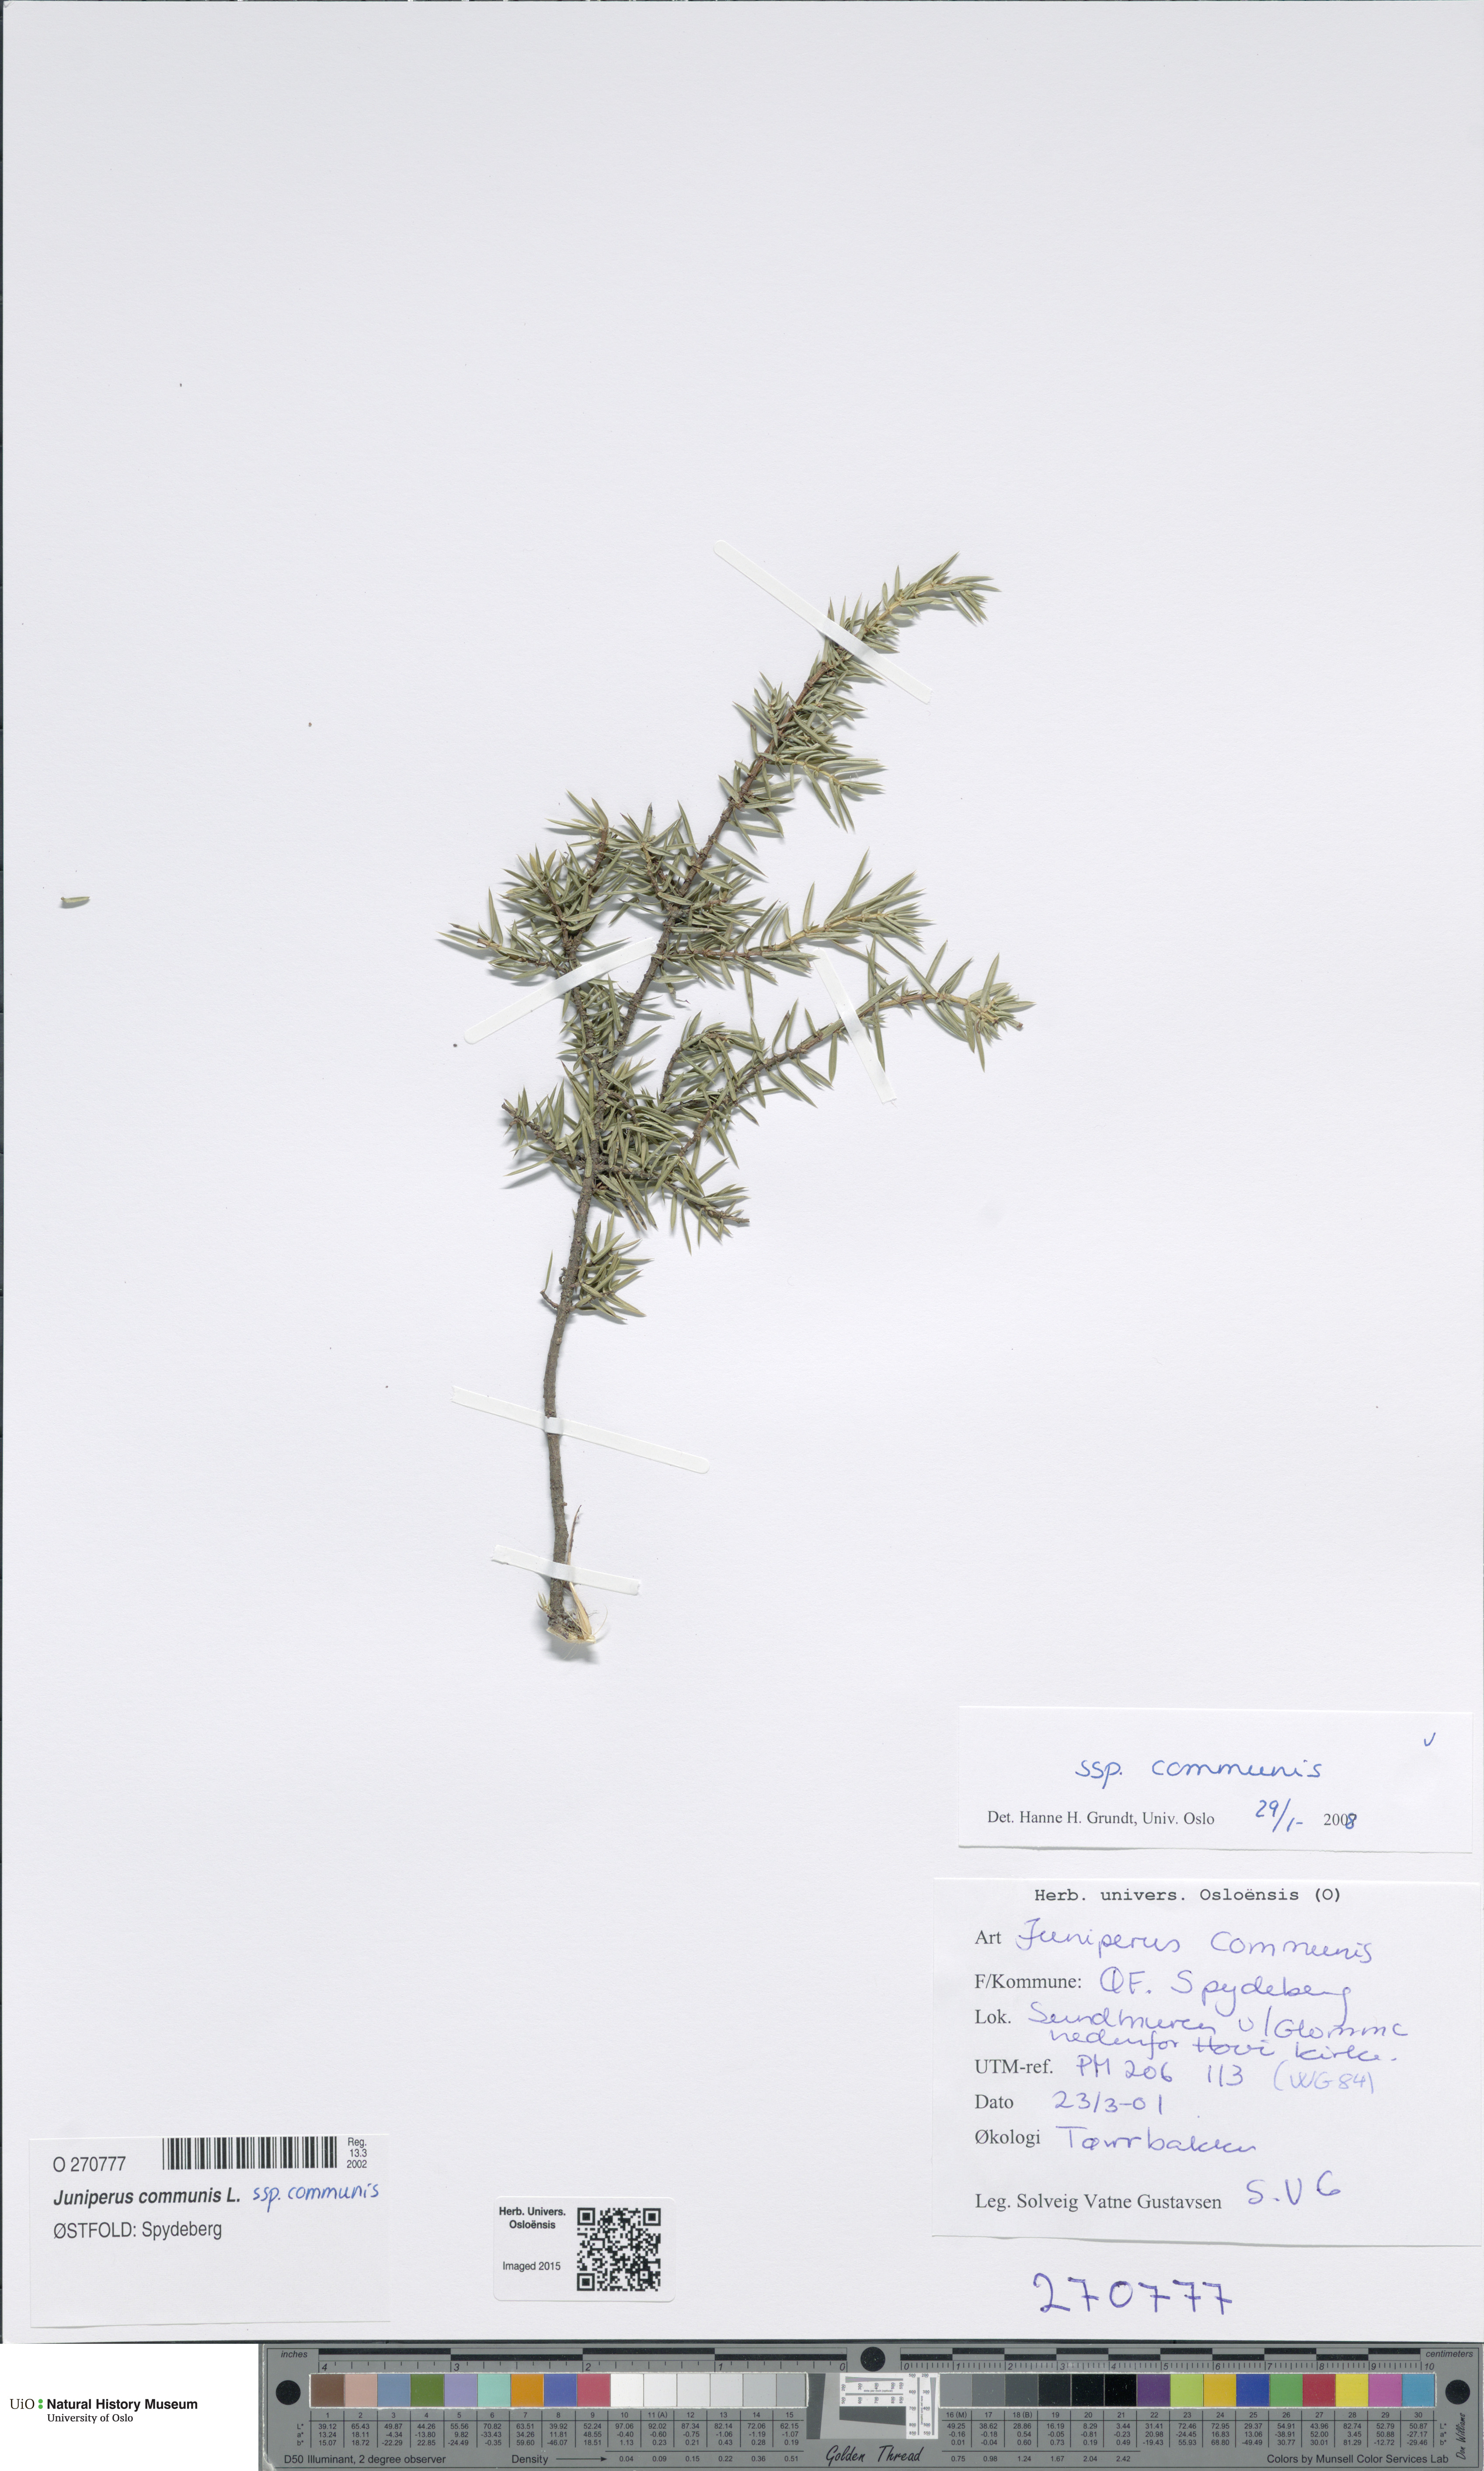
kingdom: Plantae
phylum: Tracheophyta
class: Pinopsida
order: Pinales
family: Cupressaceae
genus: Juniperus
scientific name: Juniperus communis
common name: Common juniper
